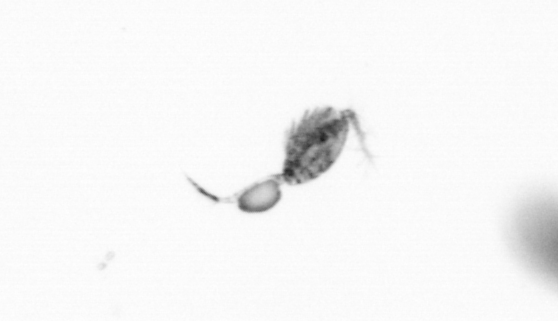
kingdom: Animalia
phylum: Arthropoda
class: Copepoda
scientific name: Copepoda
